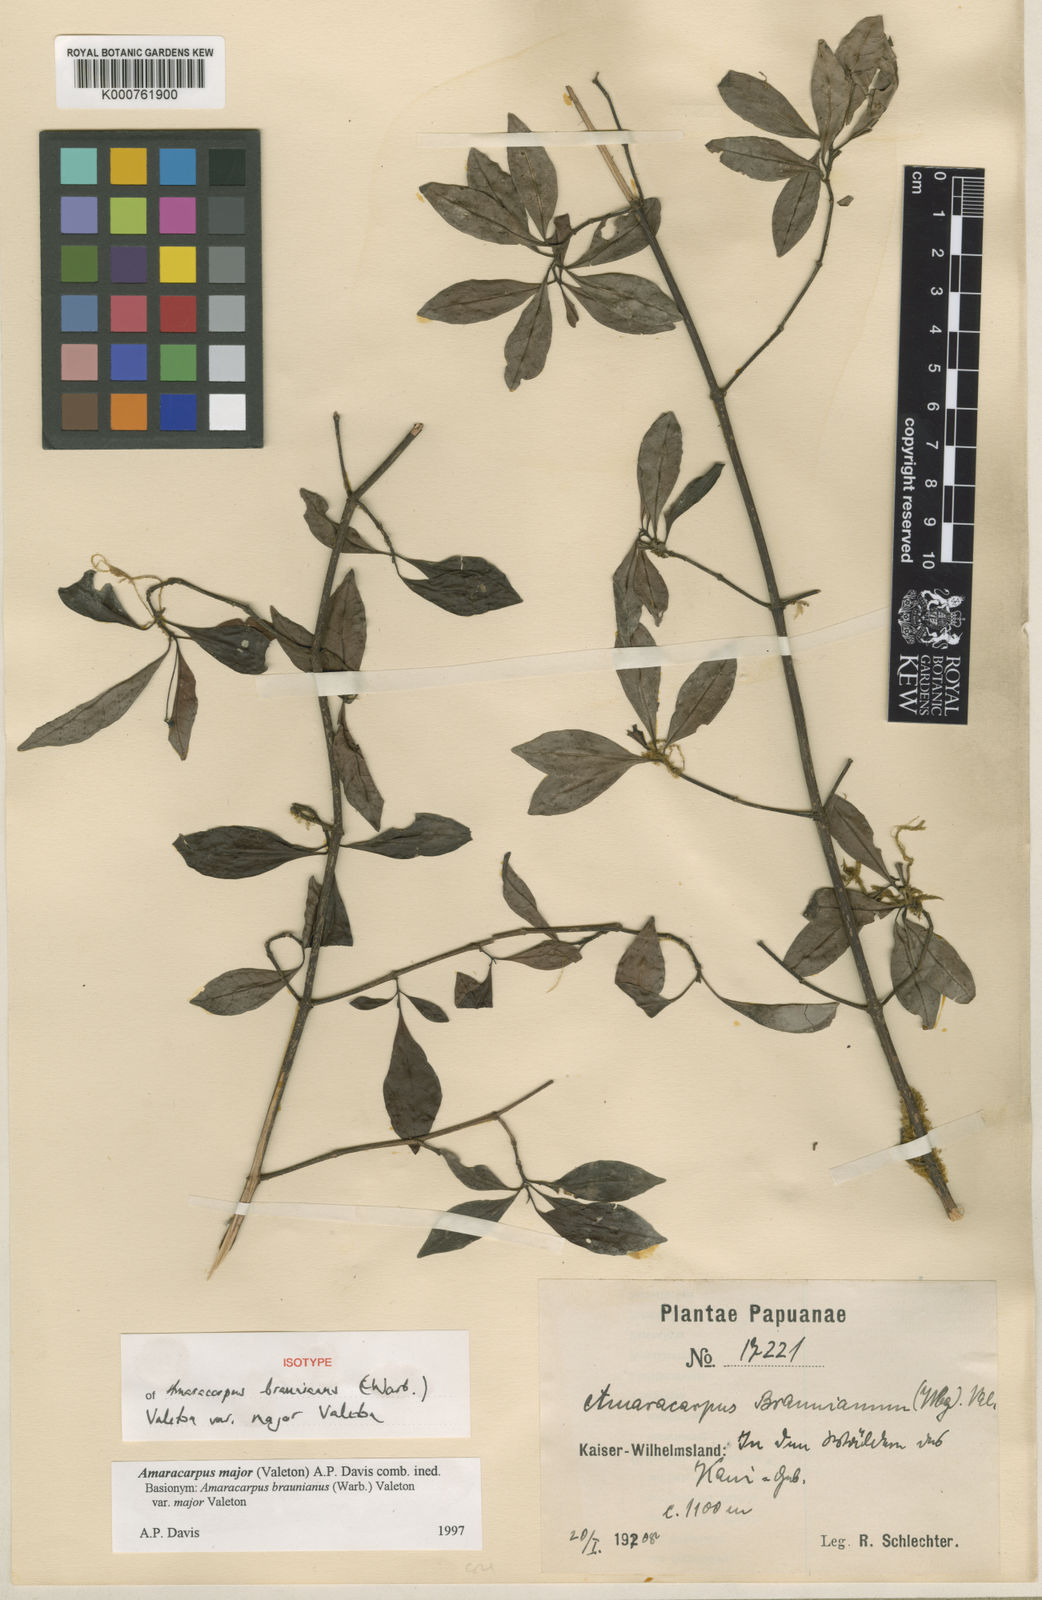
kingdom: Plantae
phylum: Tracheophyta
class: Magnoliopsida
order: Gentianales
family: Rubiaceae
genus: Amaracarpus
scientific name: Amaracarpus major
